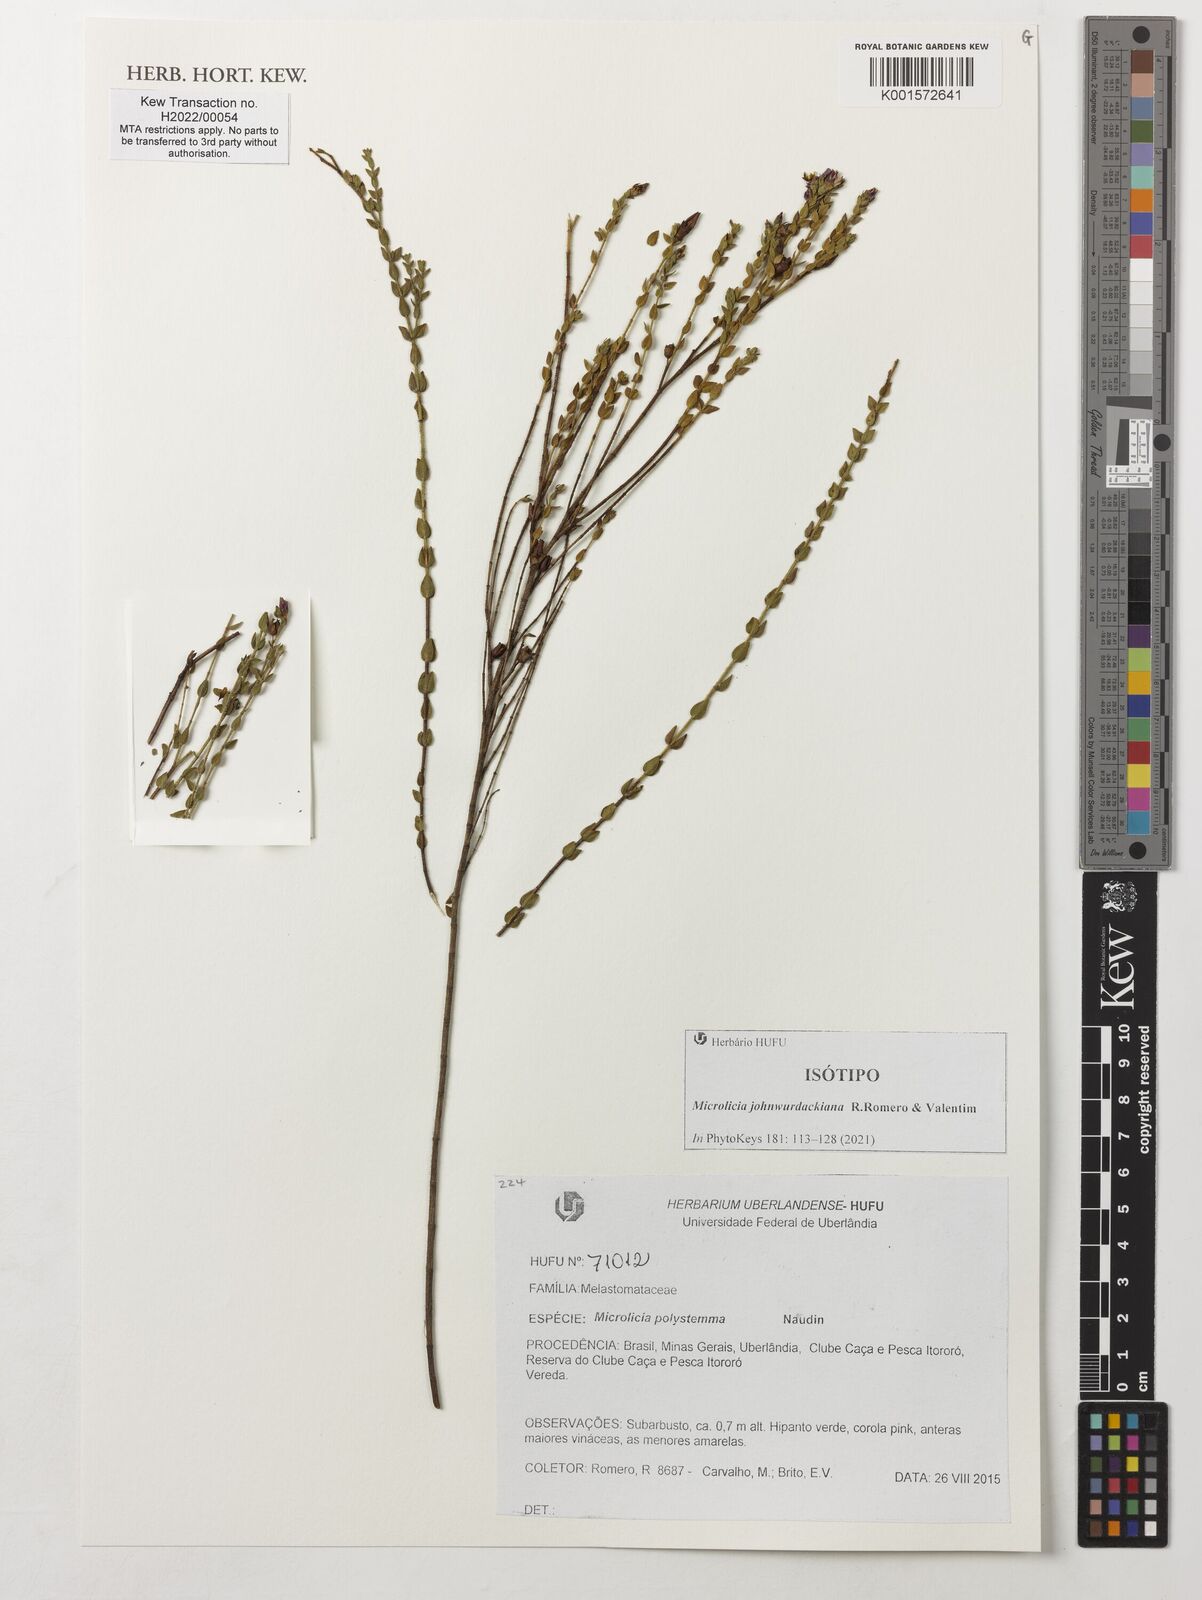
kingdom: Plantae
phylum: Tracheophyta
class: Magnoliopsida
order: Myrtales
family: Melastomataceae
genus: Microlicia
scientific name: Microlicia
